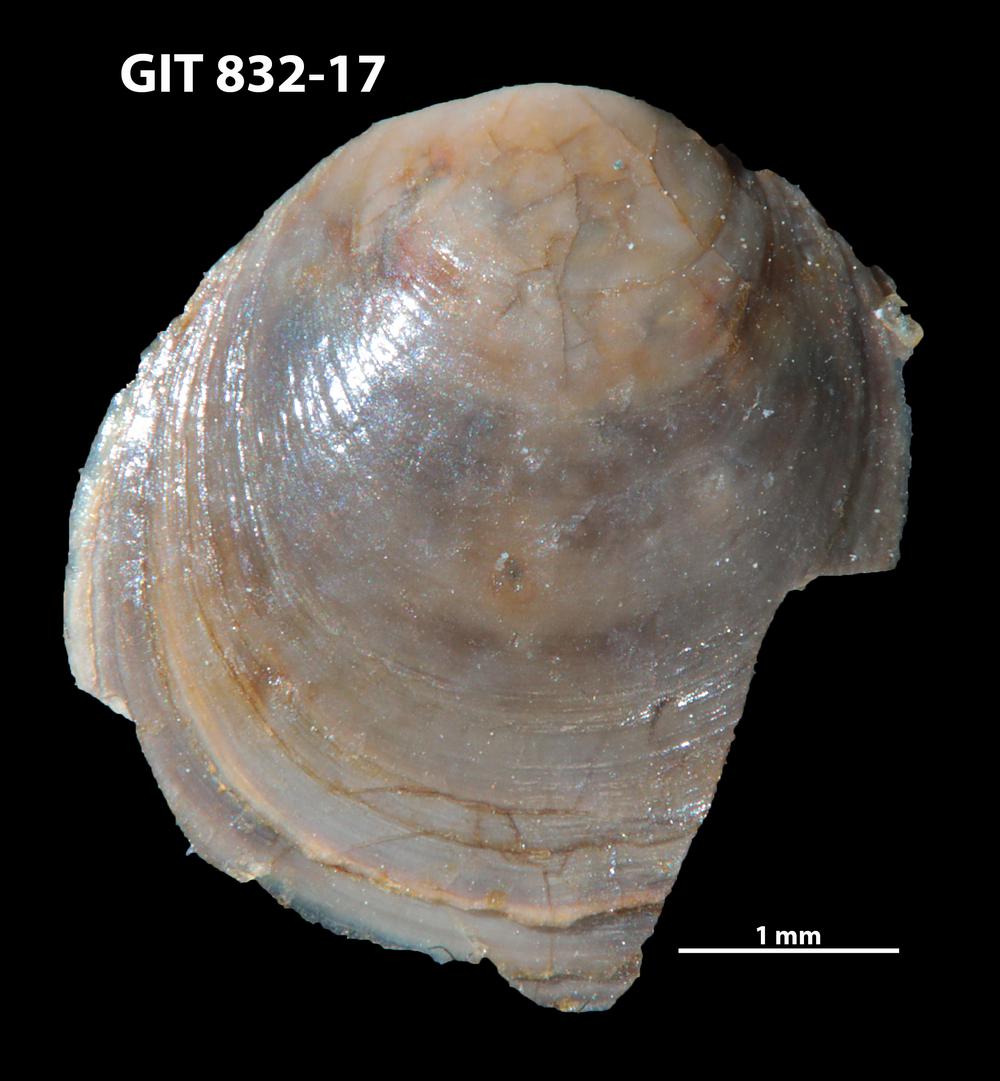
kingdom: Animalia
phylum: Brachiopoda
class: Lingulata
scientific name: Lingulata
